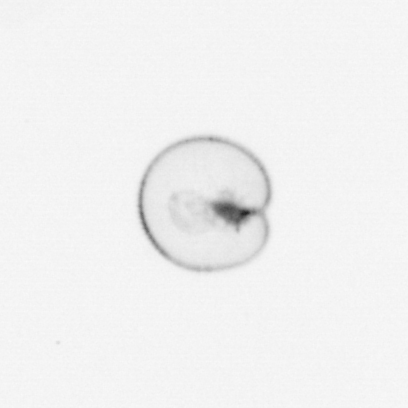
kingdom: Chromista
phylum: Myzozoa
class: Dinophyceae
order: Noctilucales
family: Noctilucaceae
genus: Noctiluca
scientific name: Noctiluca scintillans
